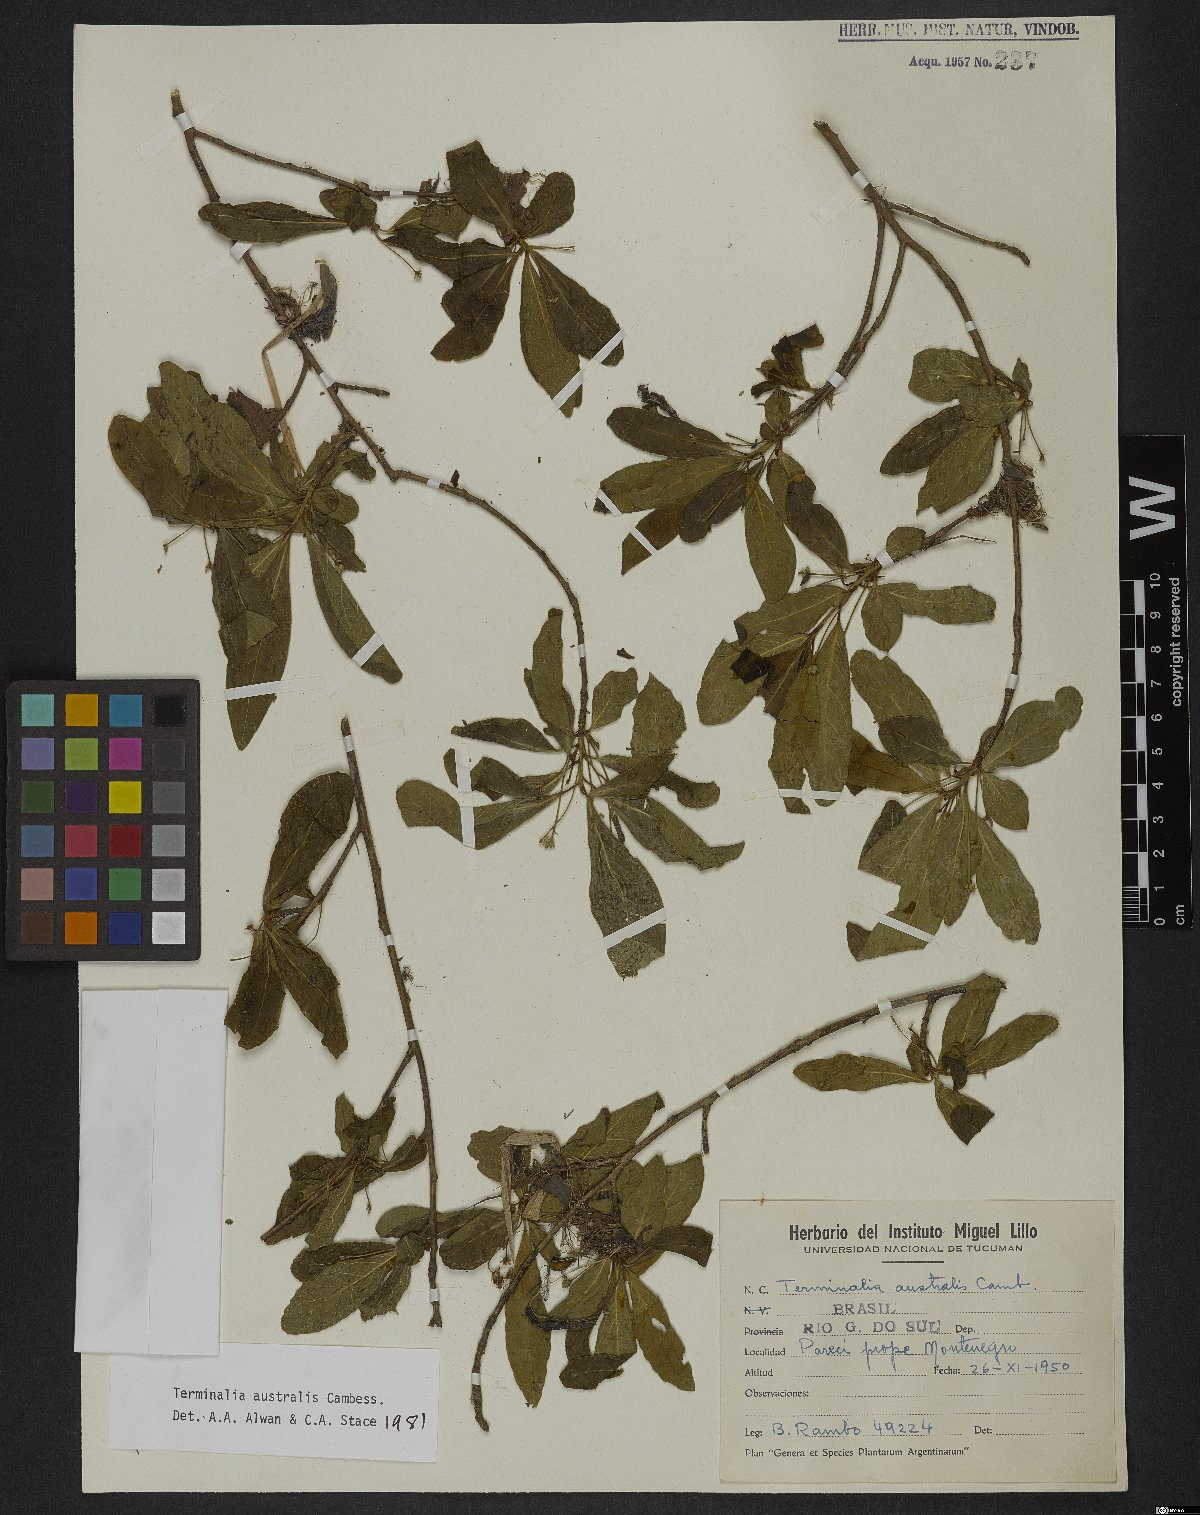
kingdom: Plantae
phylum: Tracheophyta
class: Magnoliopsida
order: Myrtales
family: Combretaceae
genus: Terminalia
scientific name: Terminalia australis
